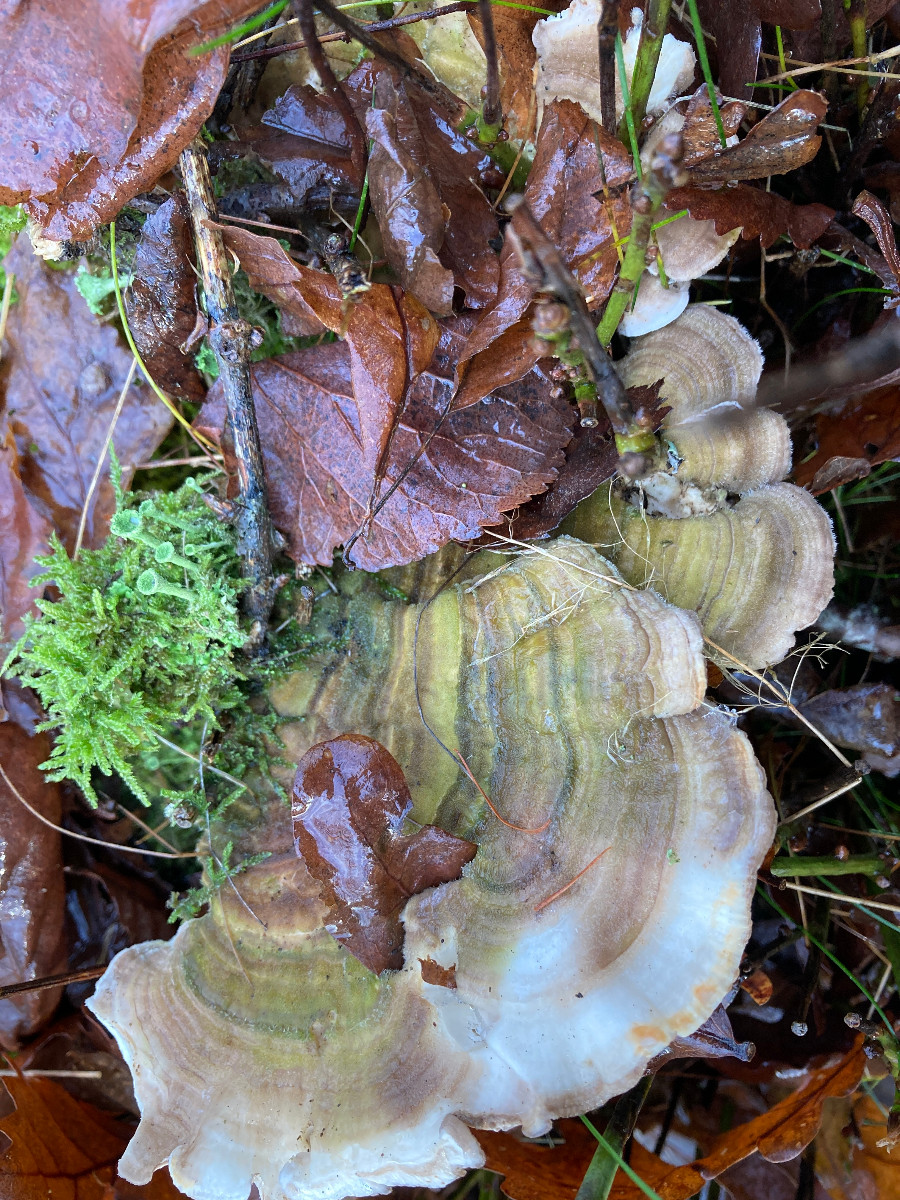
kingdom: Fungi
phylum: Basidiomycota
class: Agaricomycetes
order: Polyporales
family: Polyporaceae
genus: Lenzites
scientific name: Lenzites betulinus
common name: birke-læderporesvamp
